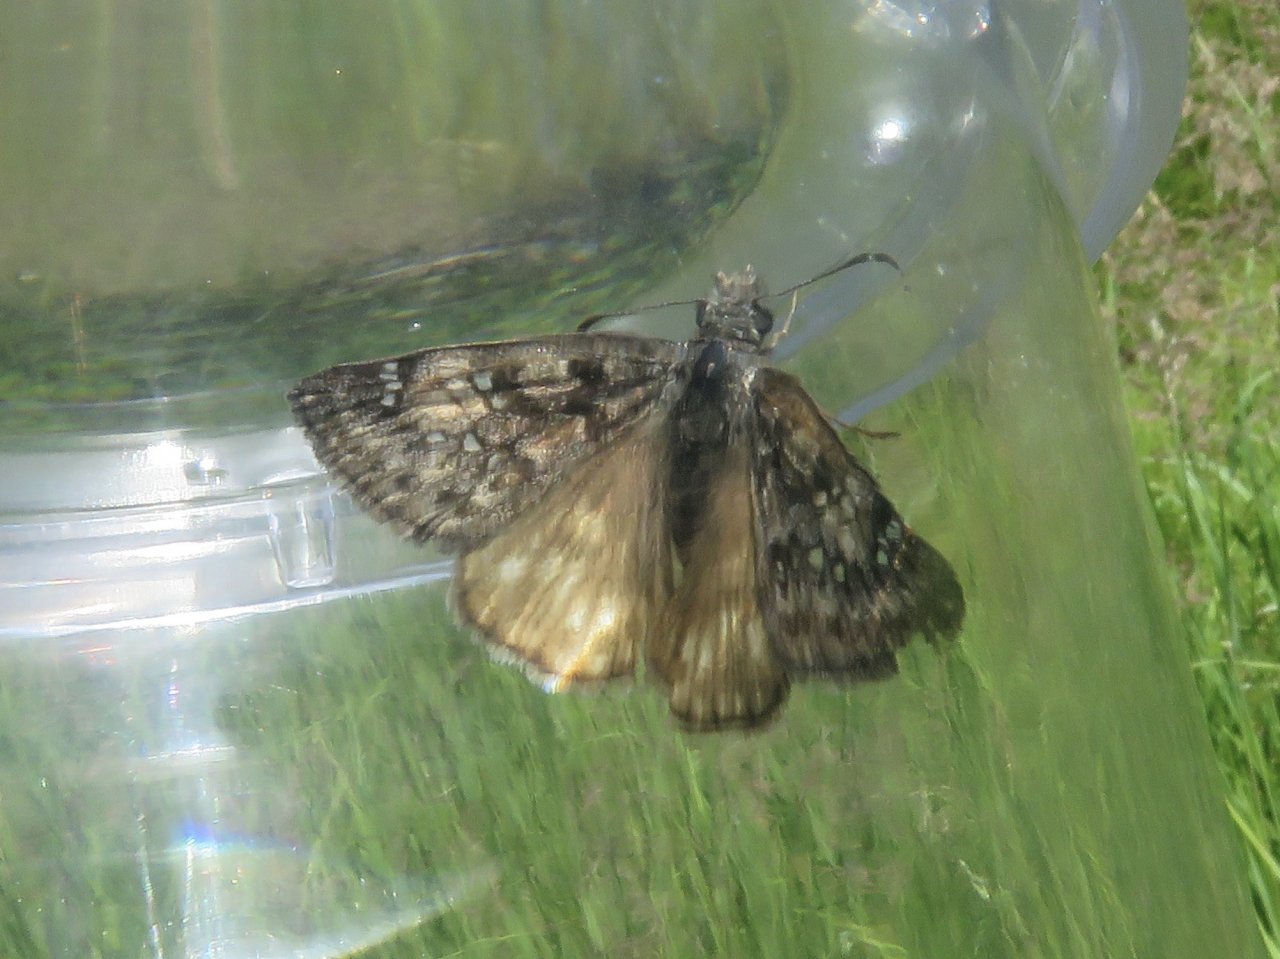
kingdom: Animalia
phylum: Arthropoda
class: Insecta
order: Lepidoptera
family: Hesperiidae
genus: Erynnis
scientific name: Erynnis propertius
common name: Propertius Duskywing
